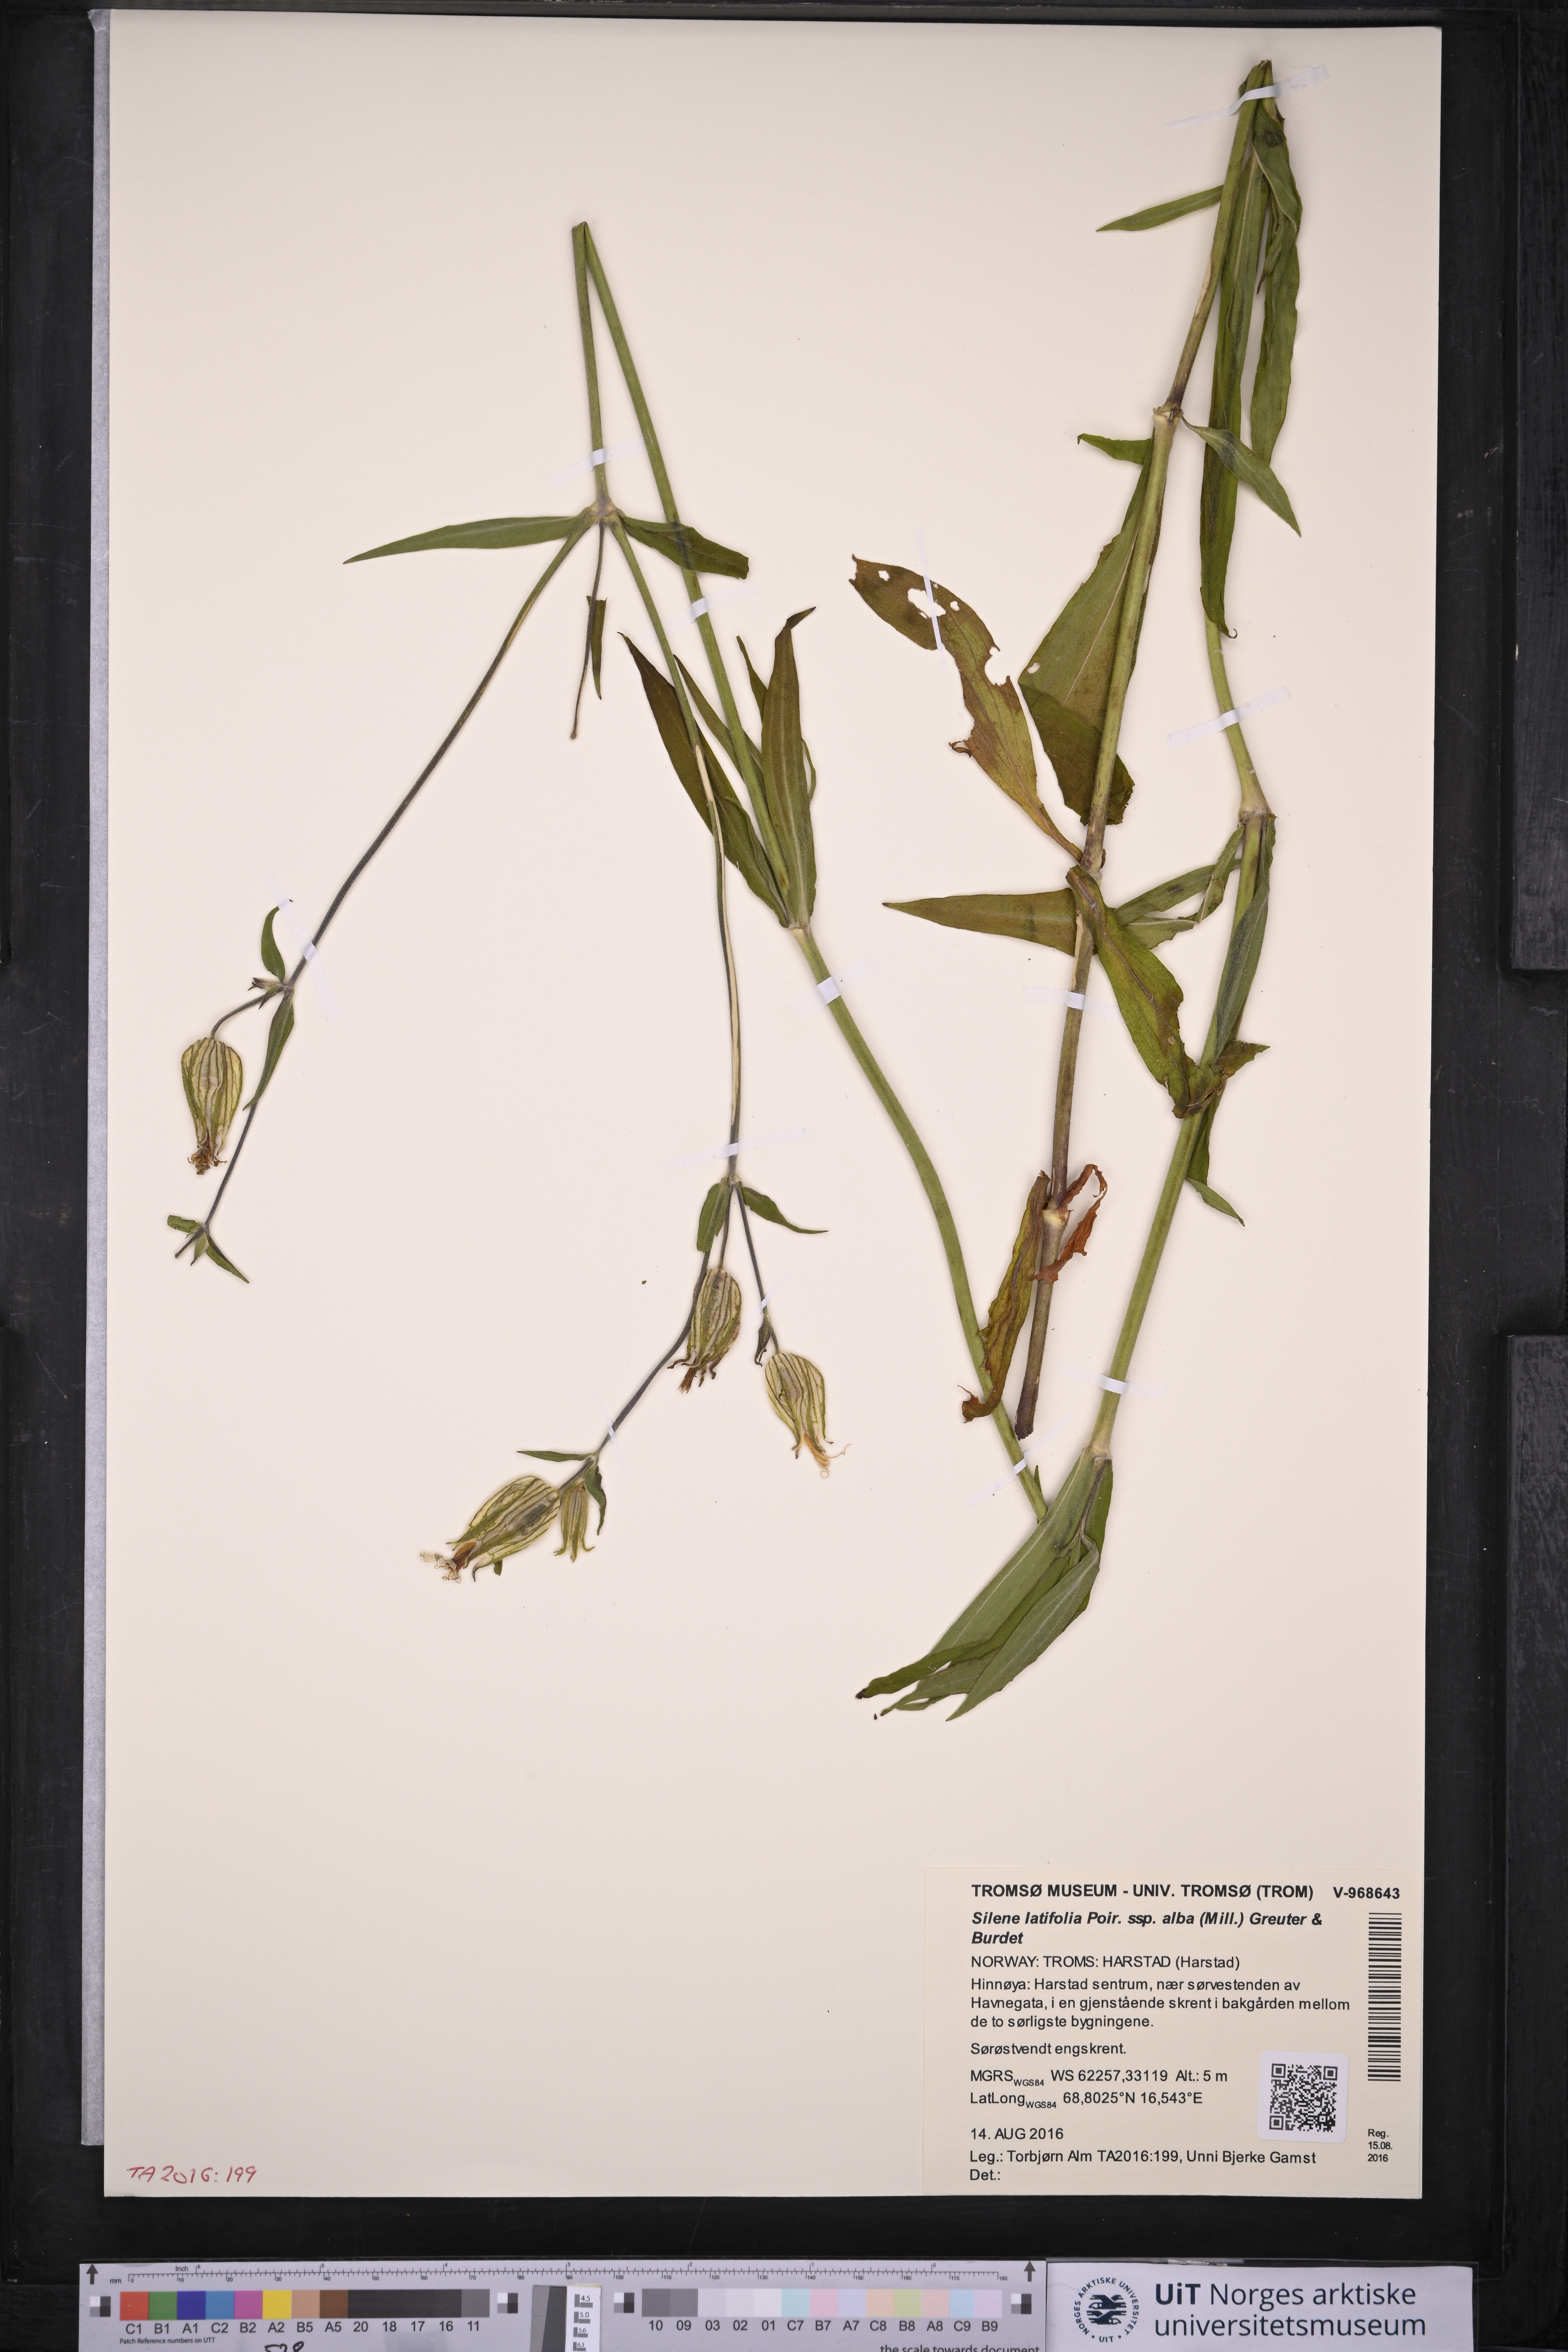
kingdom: Plantae
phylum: Tracheophyta
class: Magnoliopsida
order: Caryophyllales
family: Caryophyllaceae
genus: Silene
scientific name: Silene latifolia
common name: White campion
